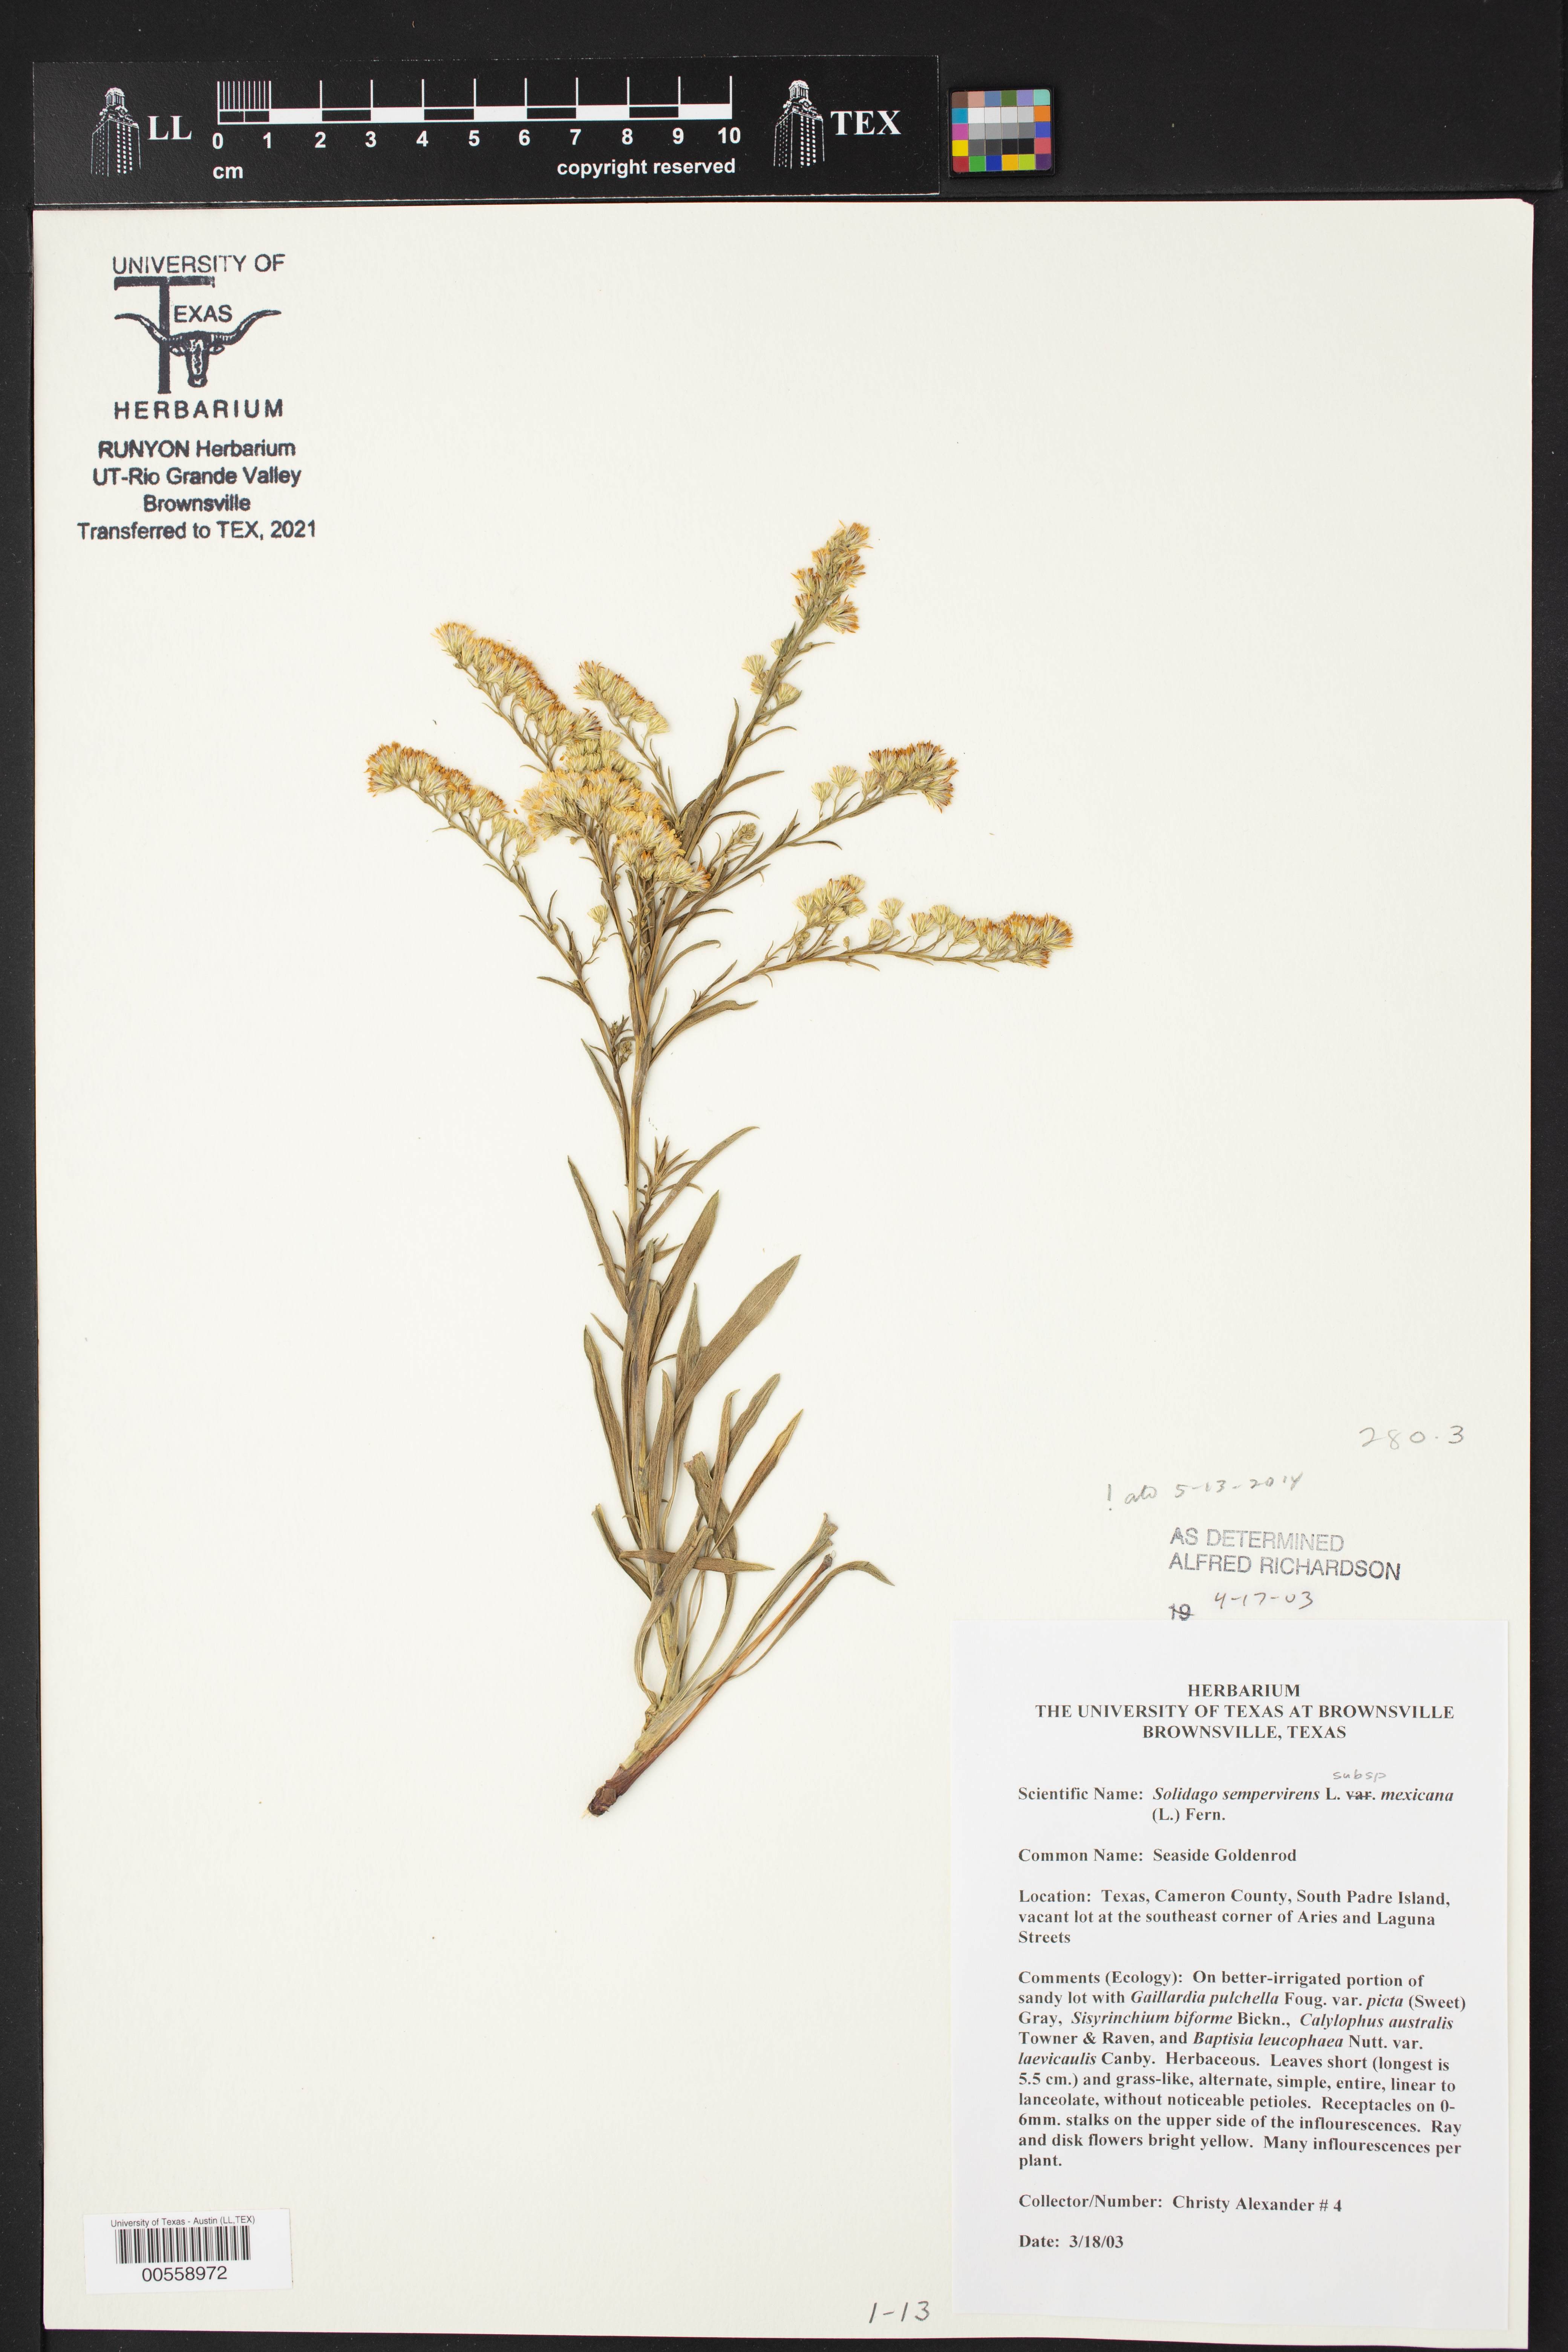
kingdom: Plantae
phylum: Tracheophyta
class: Magnoliopsida
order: Asterales
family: Asteraceae
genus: Solidago
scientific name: Solidago mexicana
